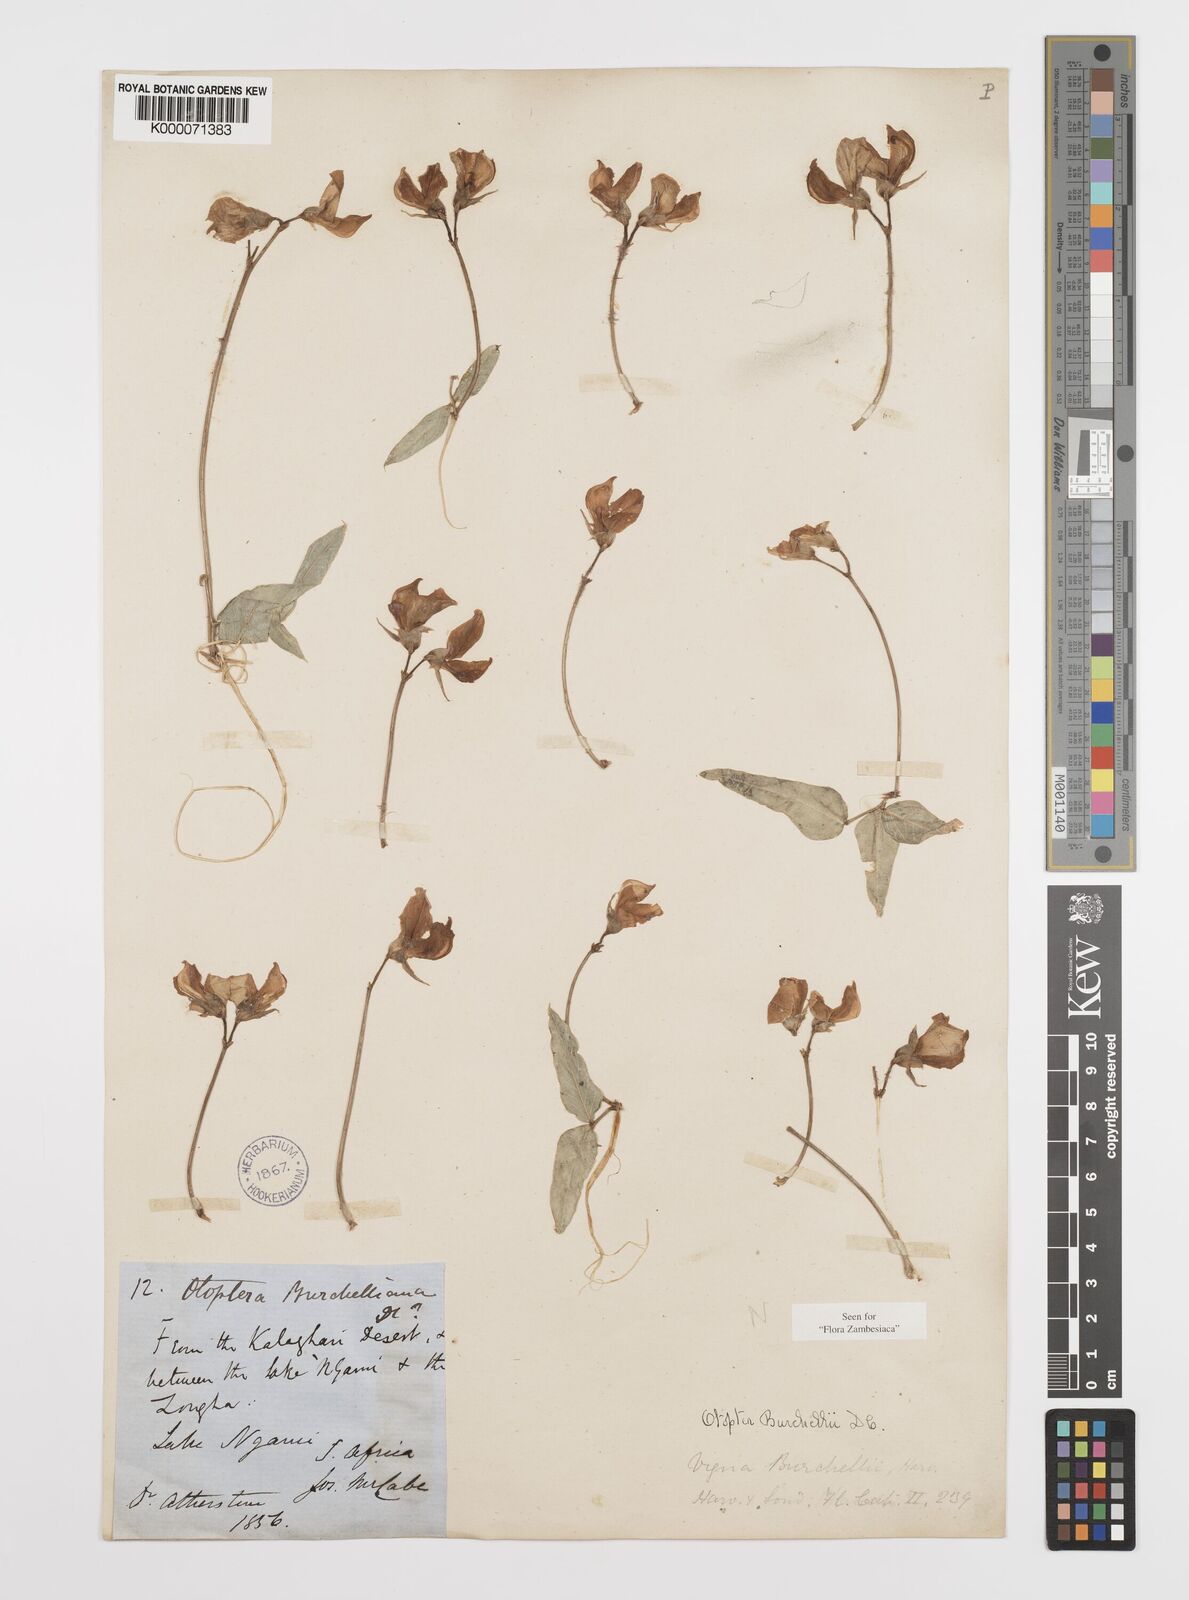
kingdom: Plantae
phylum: Tracheophyta
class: Magnoliopsida
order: Fabales
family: Fabaceae
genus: Otoptera
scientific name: Otoptera burchellii
